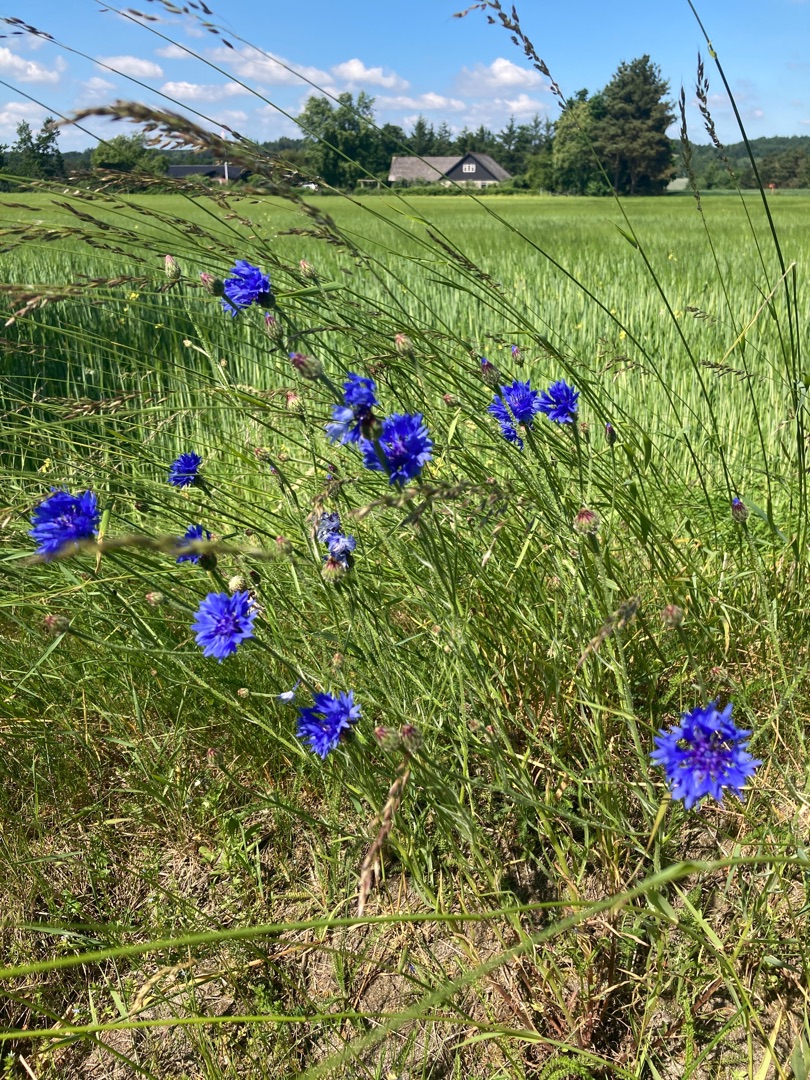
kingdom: Plantae
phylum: Tracheophyta
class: Magnoliopsida
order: Asterales
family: Asteraceae
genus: Centaurea
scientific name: Centaurea cyanus
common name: Kornblomst
